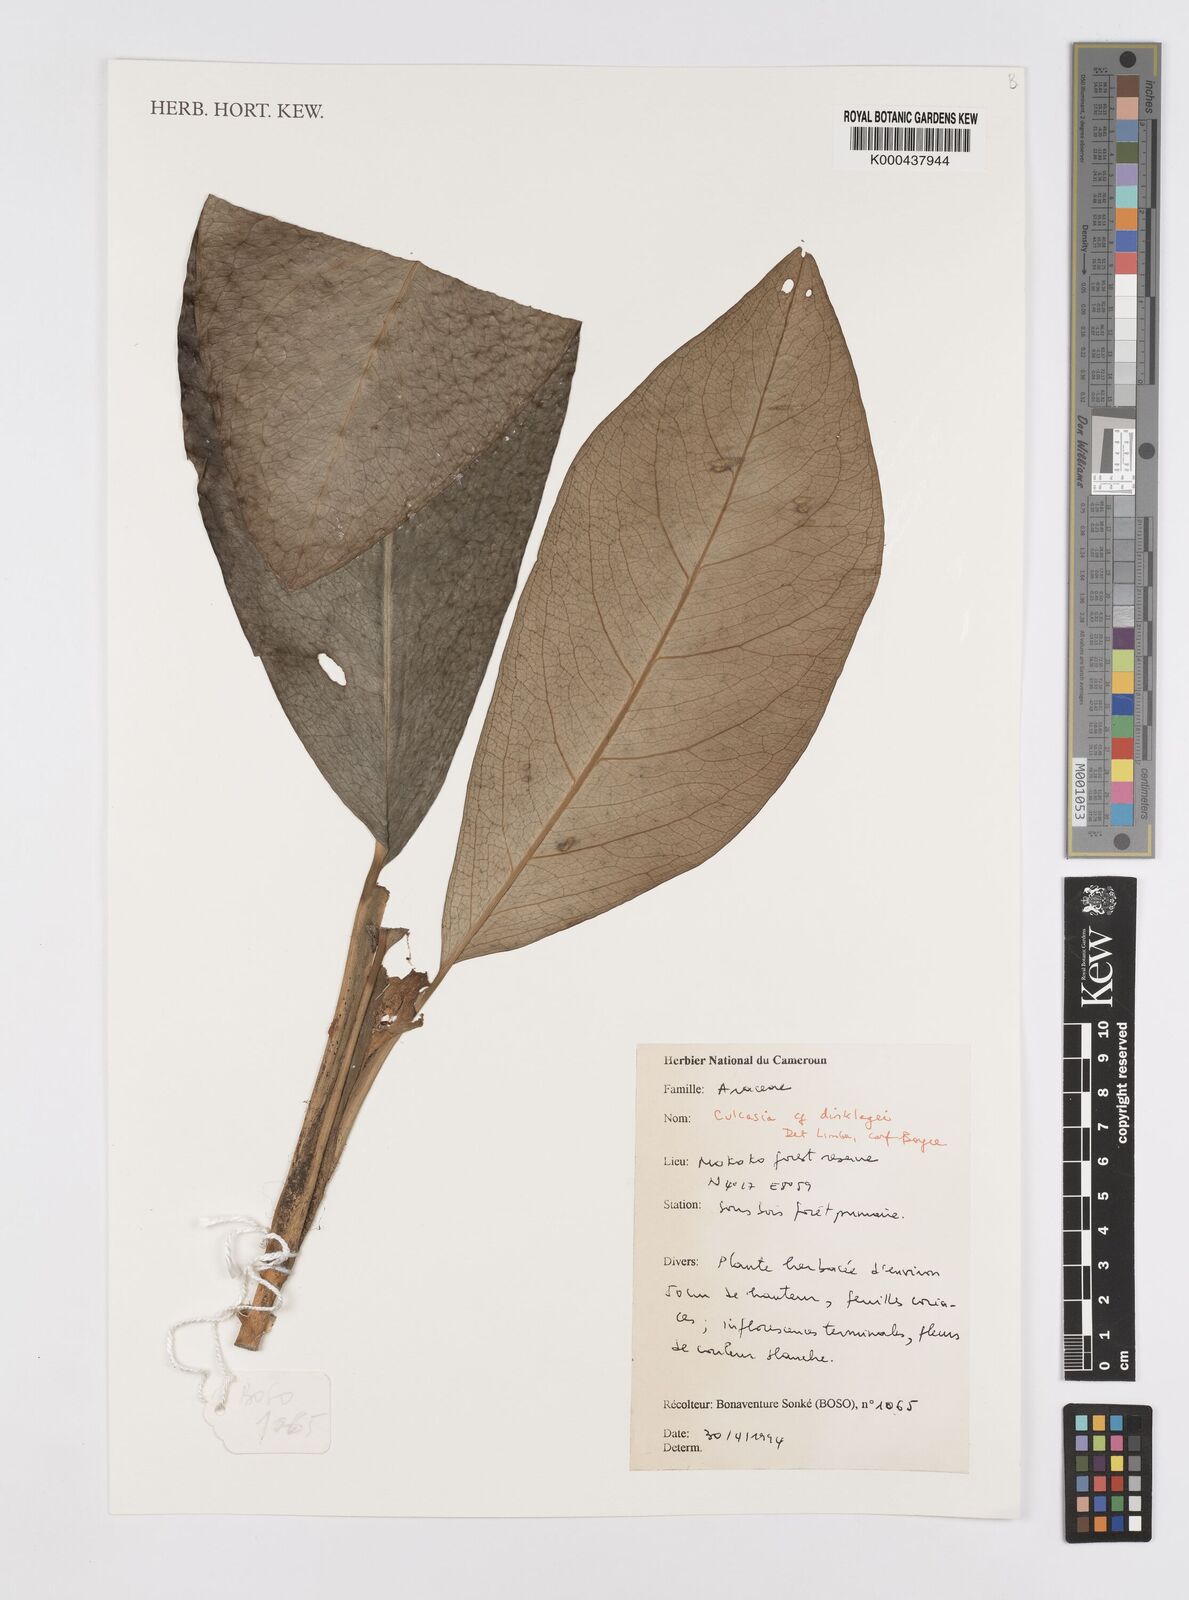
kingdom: Plantae
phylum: Tracheophyta
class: Liliopsida
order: Alismatales
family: Araceae
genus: Culcasia
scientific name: Culcasia dinklagei
